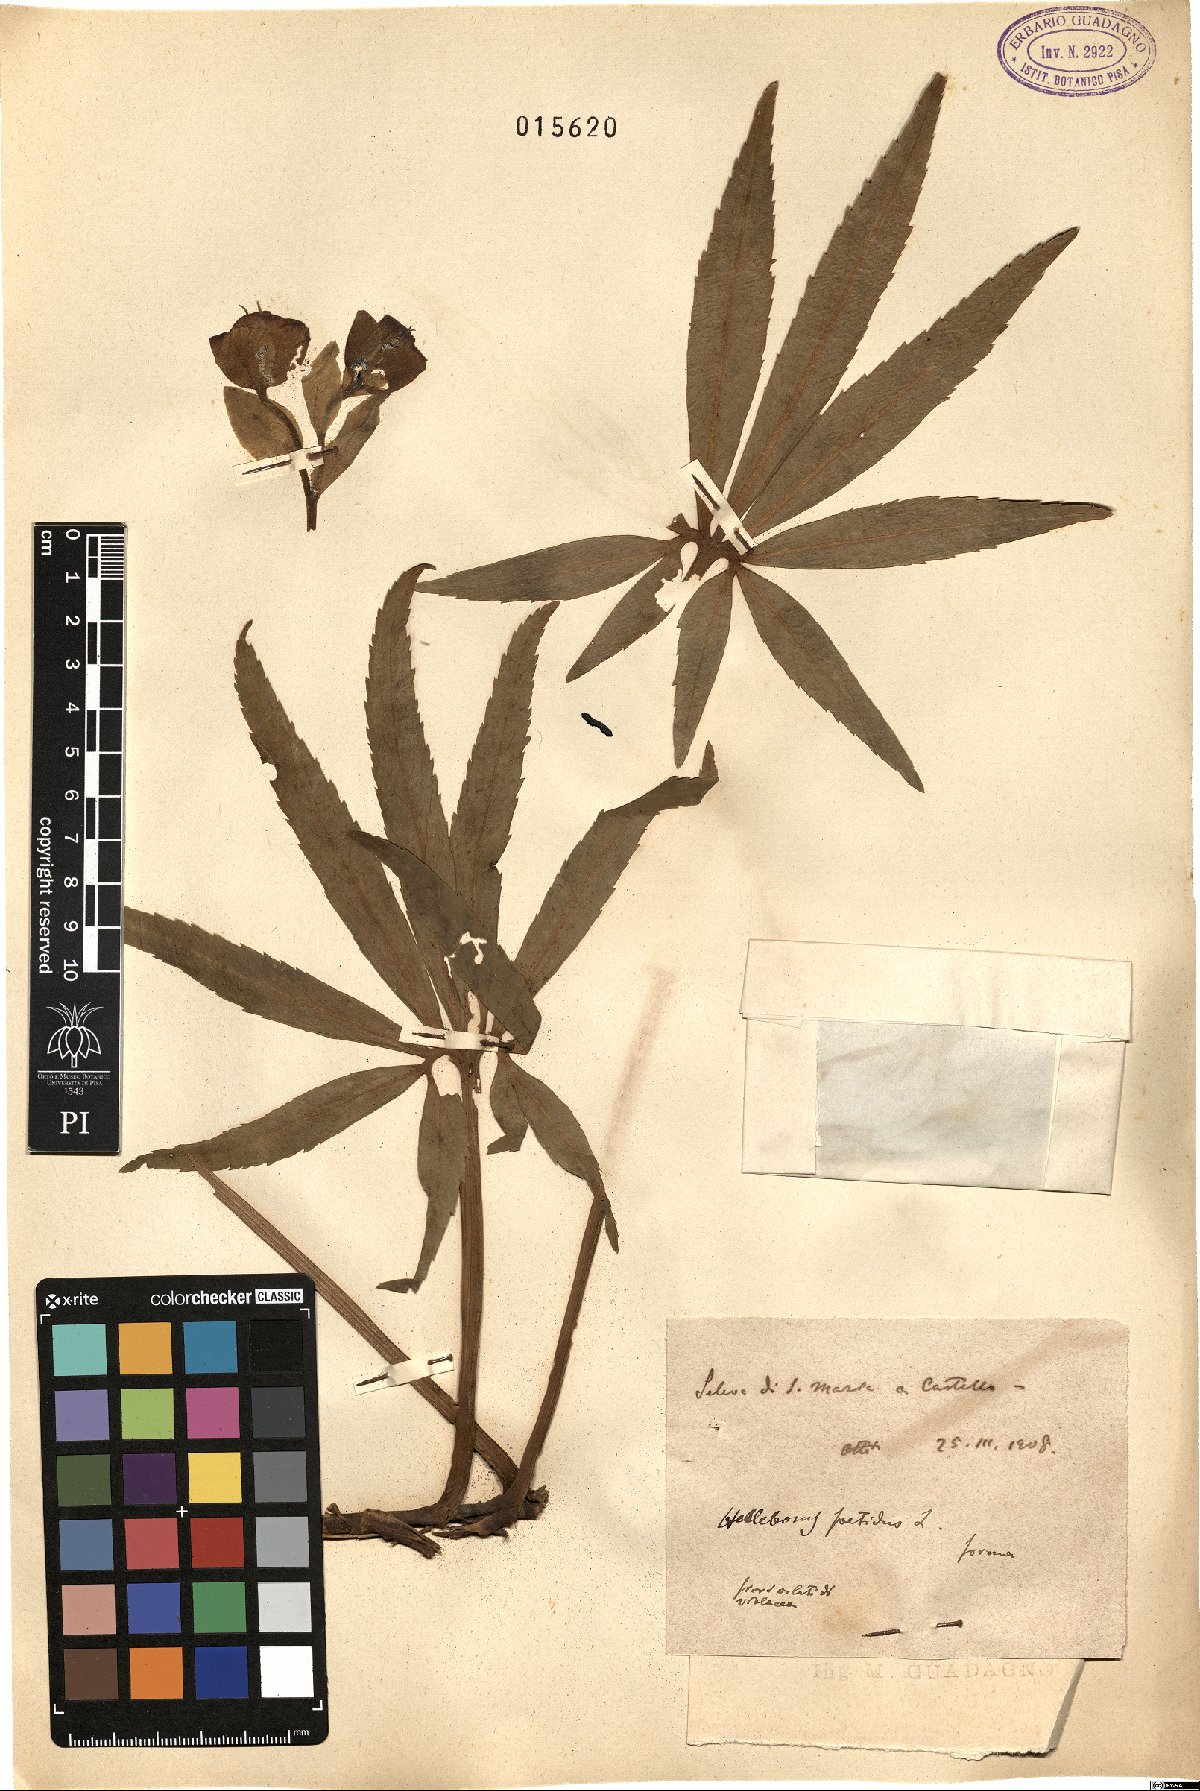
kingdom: Plantae
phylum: Tracheophyta
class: Magnoliopsida
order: Ranunculales
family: Ranunculaceae
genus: Helleborus
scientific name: Helleborus foetidus
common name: Stinking hellebore
